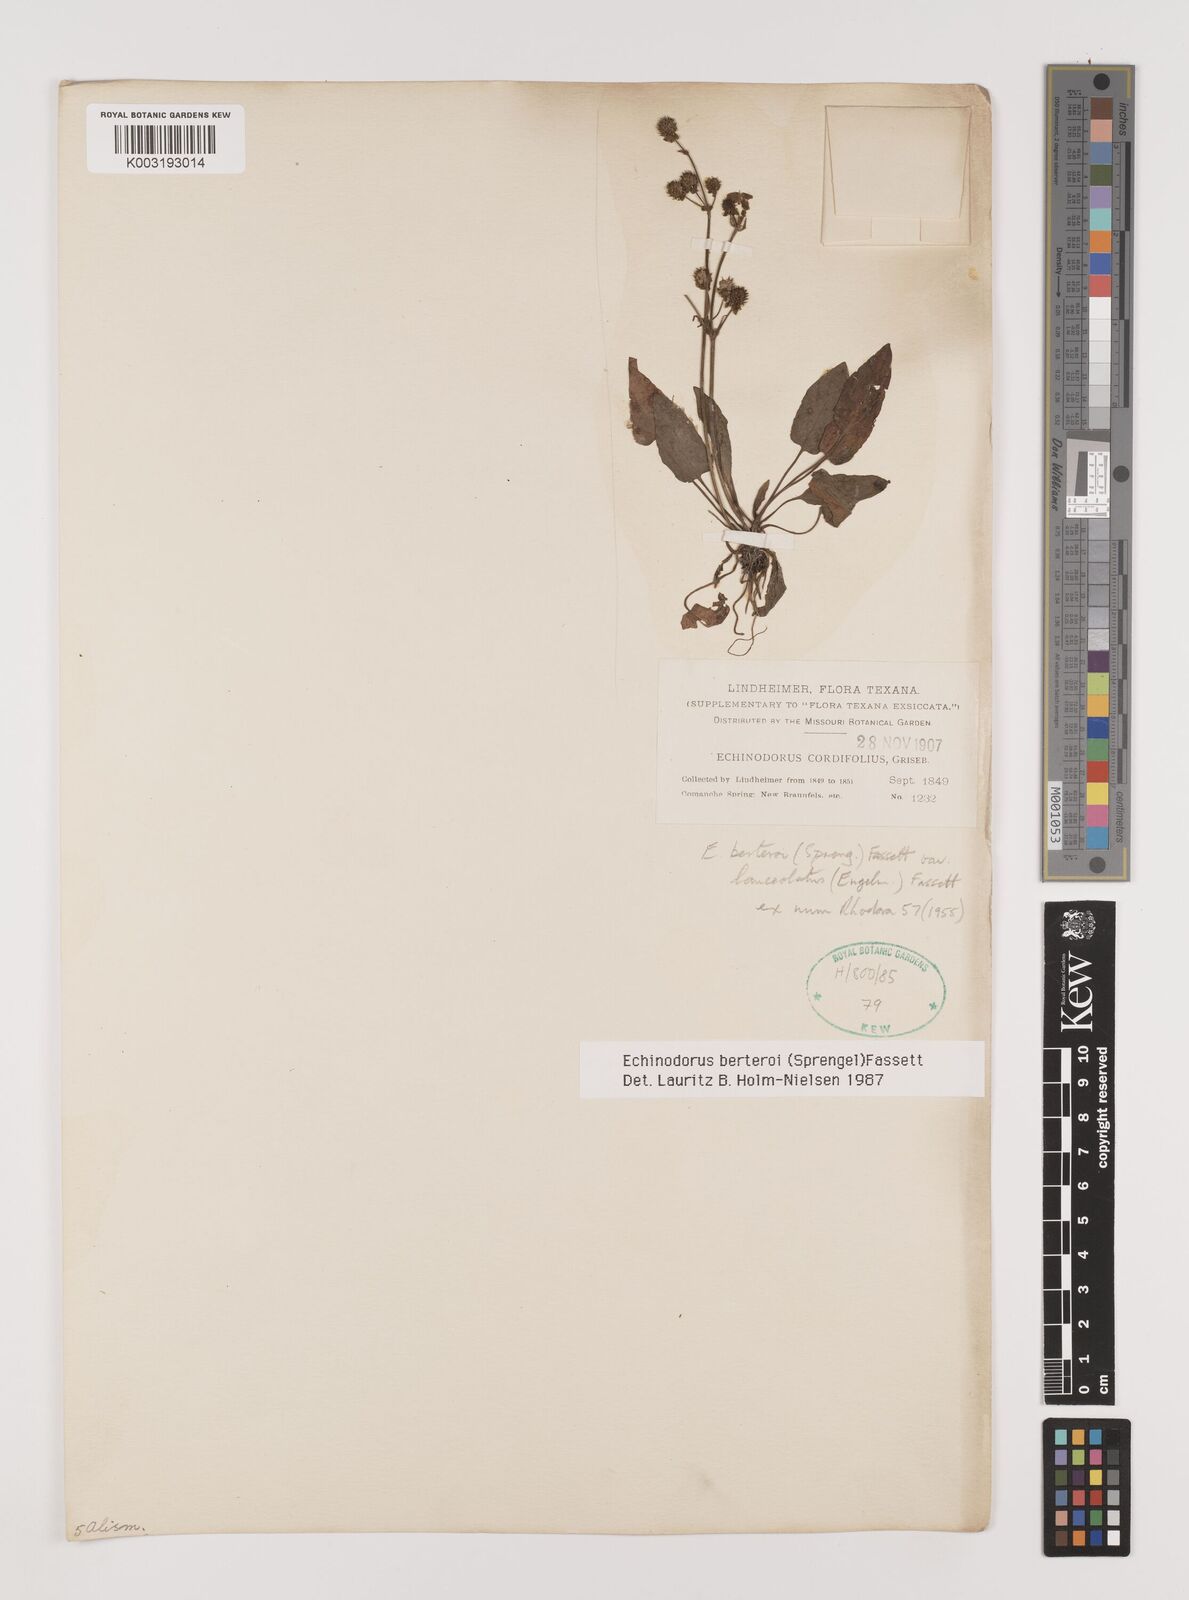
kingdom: Plantae
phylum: Tracheophyta
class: Liliopsida
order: Alismatales
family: Alismataceae
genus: Echinodorus
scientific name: Echinodorus berteroi
